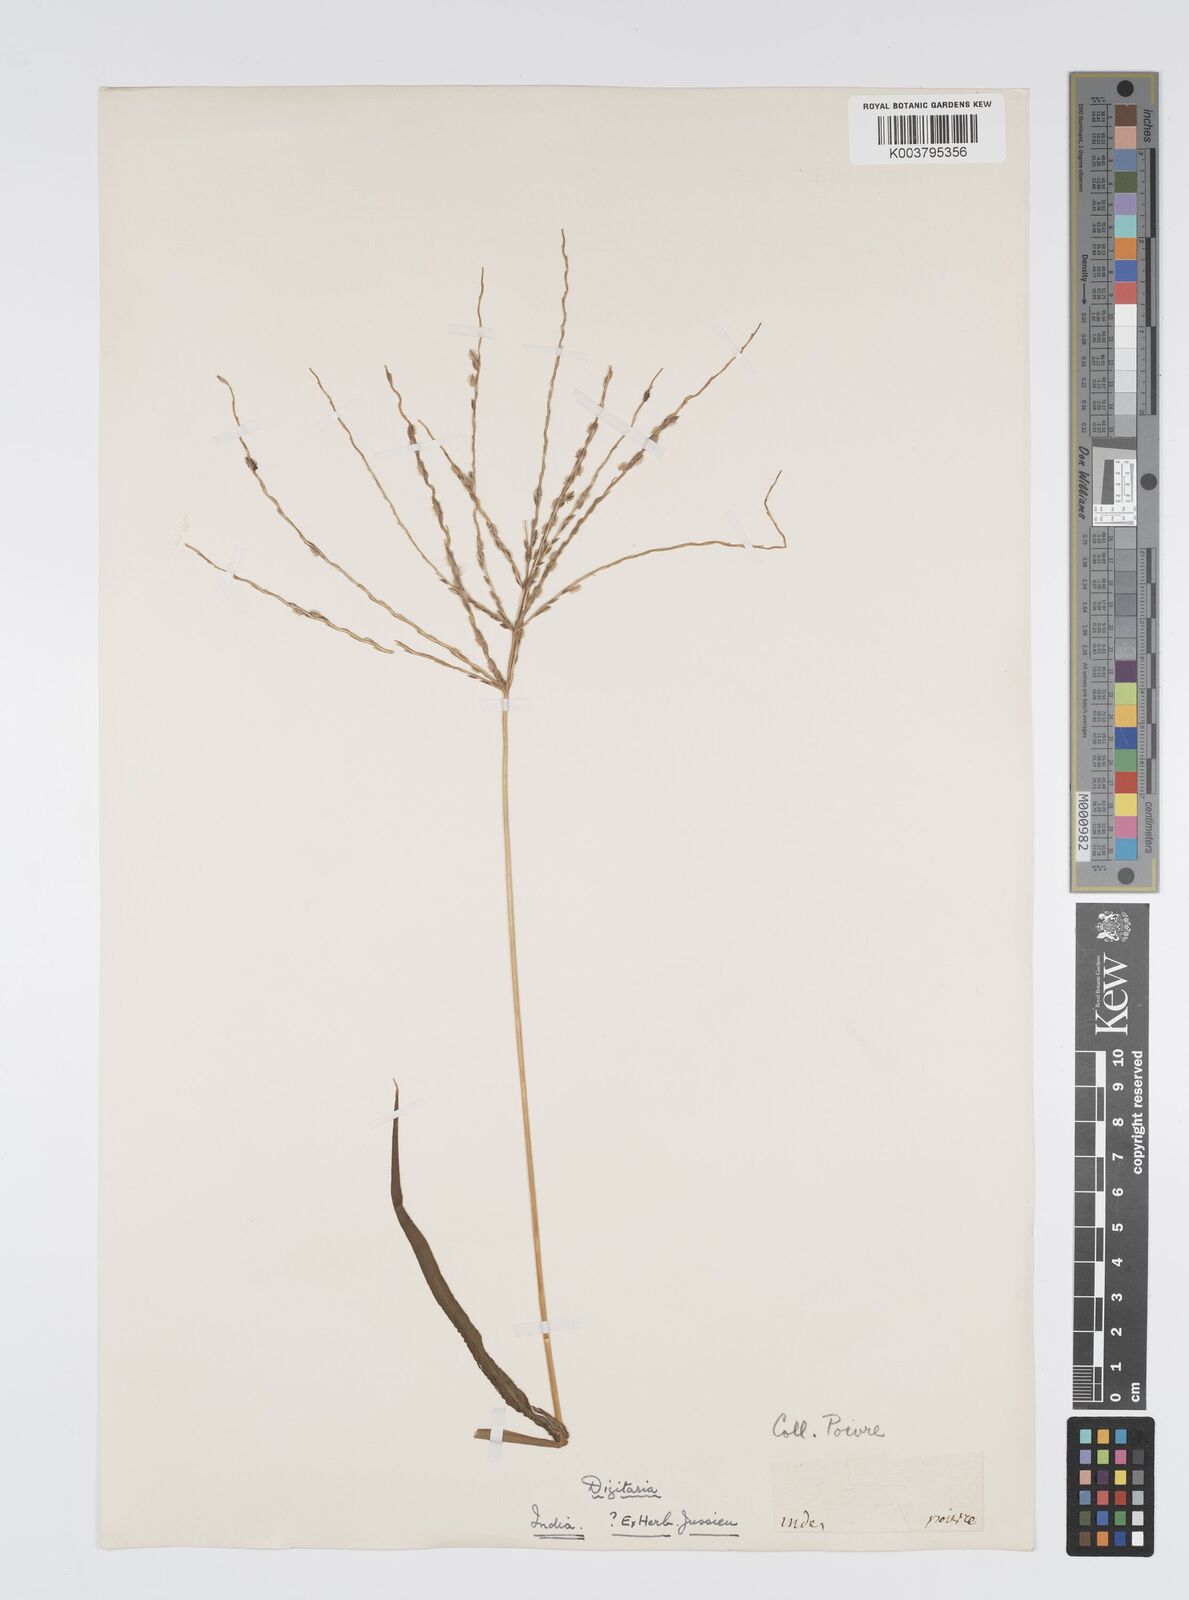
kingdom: Plantae
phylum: Tracheophyta
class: Liliopsida
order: Poales
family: Poaceae
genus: Digitaria
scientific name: Digitaria ciliaris
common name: Tropical finger-grass
